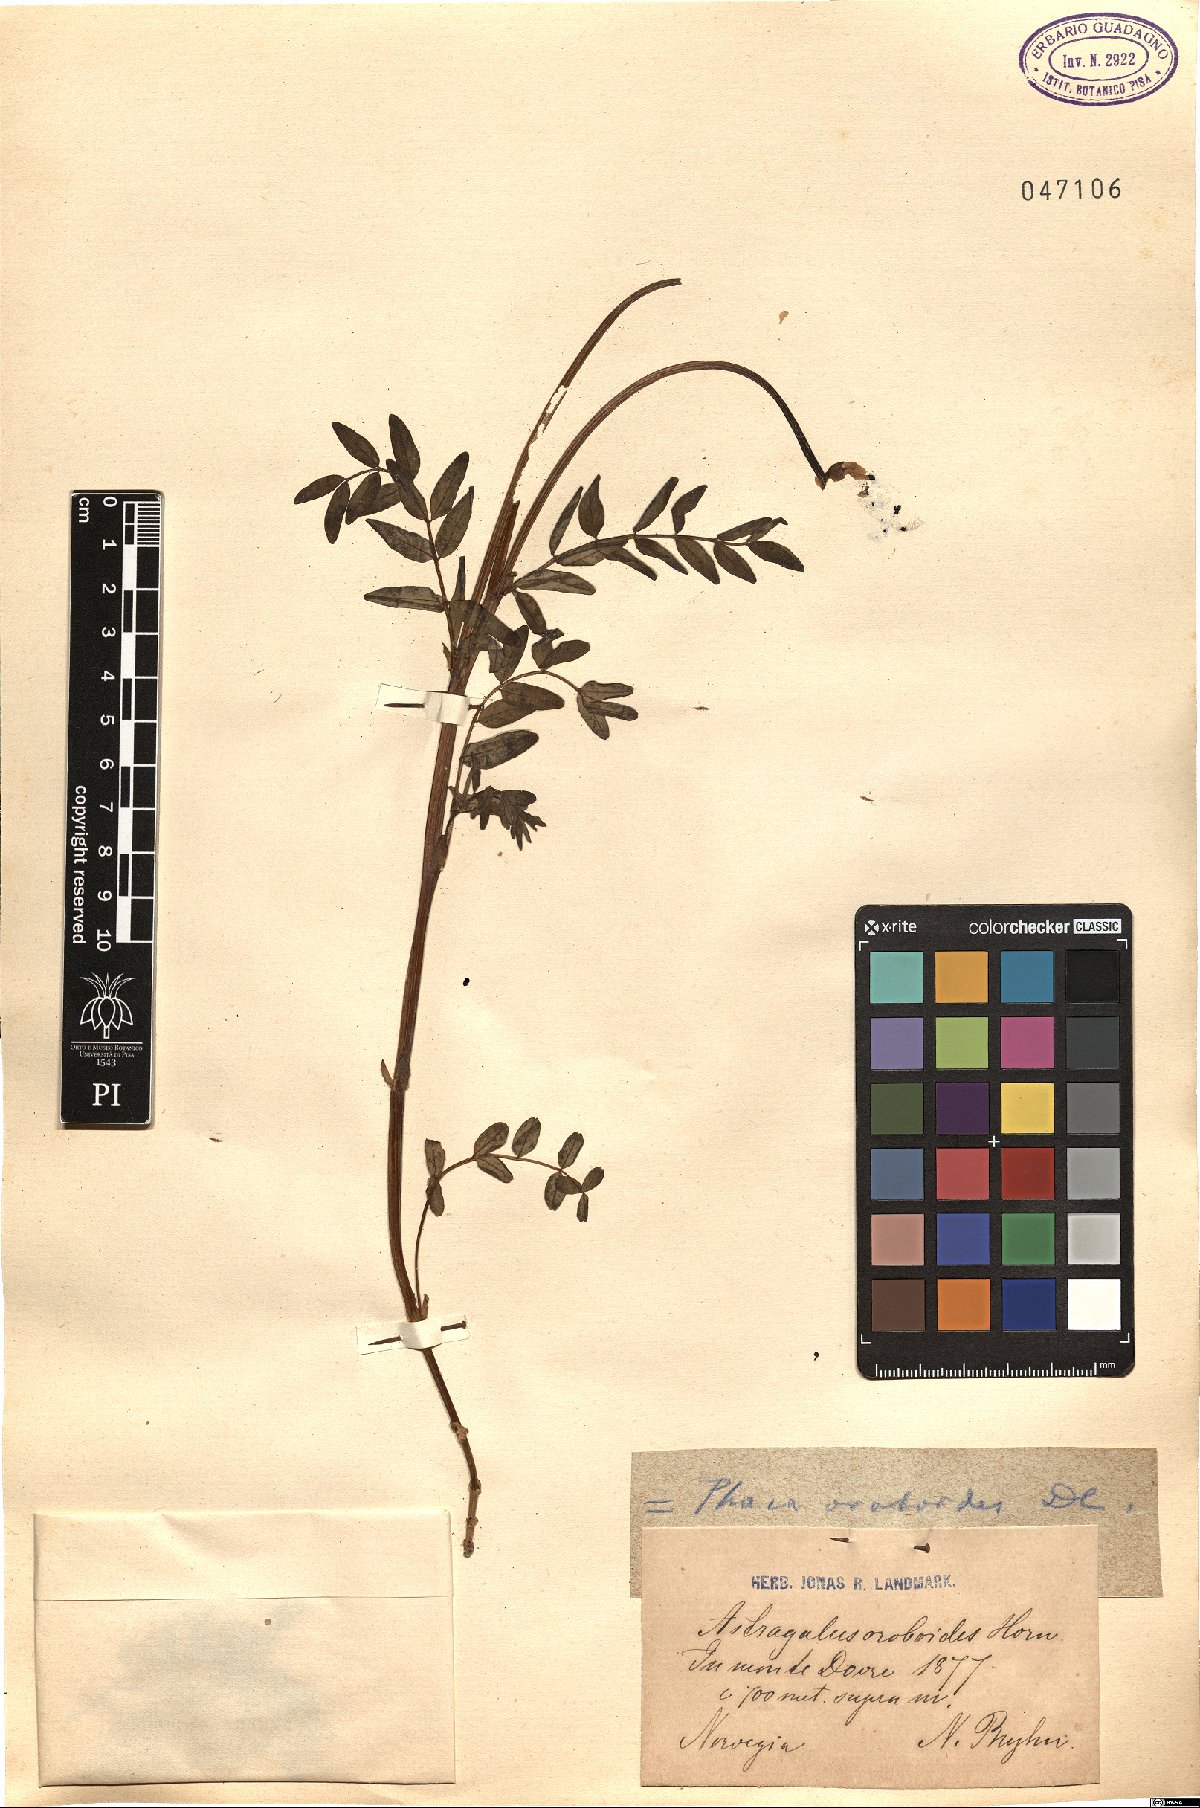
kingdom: Plantae
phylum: Tracheophyta
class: Magnoliopsida
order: Fabales
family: Fabaceae
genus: Astragalus
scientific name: Astragalus norvegicus
